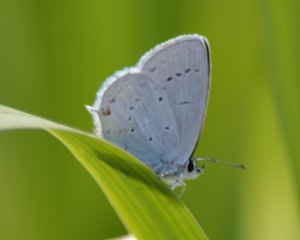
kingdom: Animalia
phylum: Arthropoda
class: Insecta
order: Lepidoptera
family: Lycaenidae
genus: Elkalyce
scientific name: Elkalyce amyntula
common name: Western Tailed-Blue
